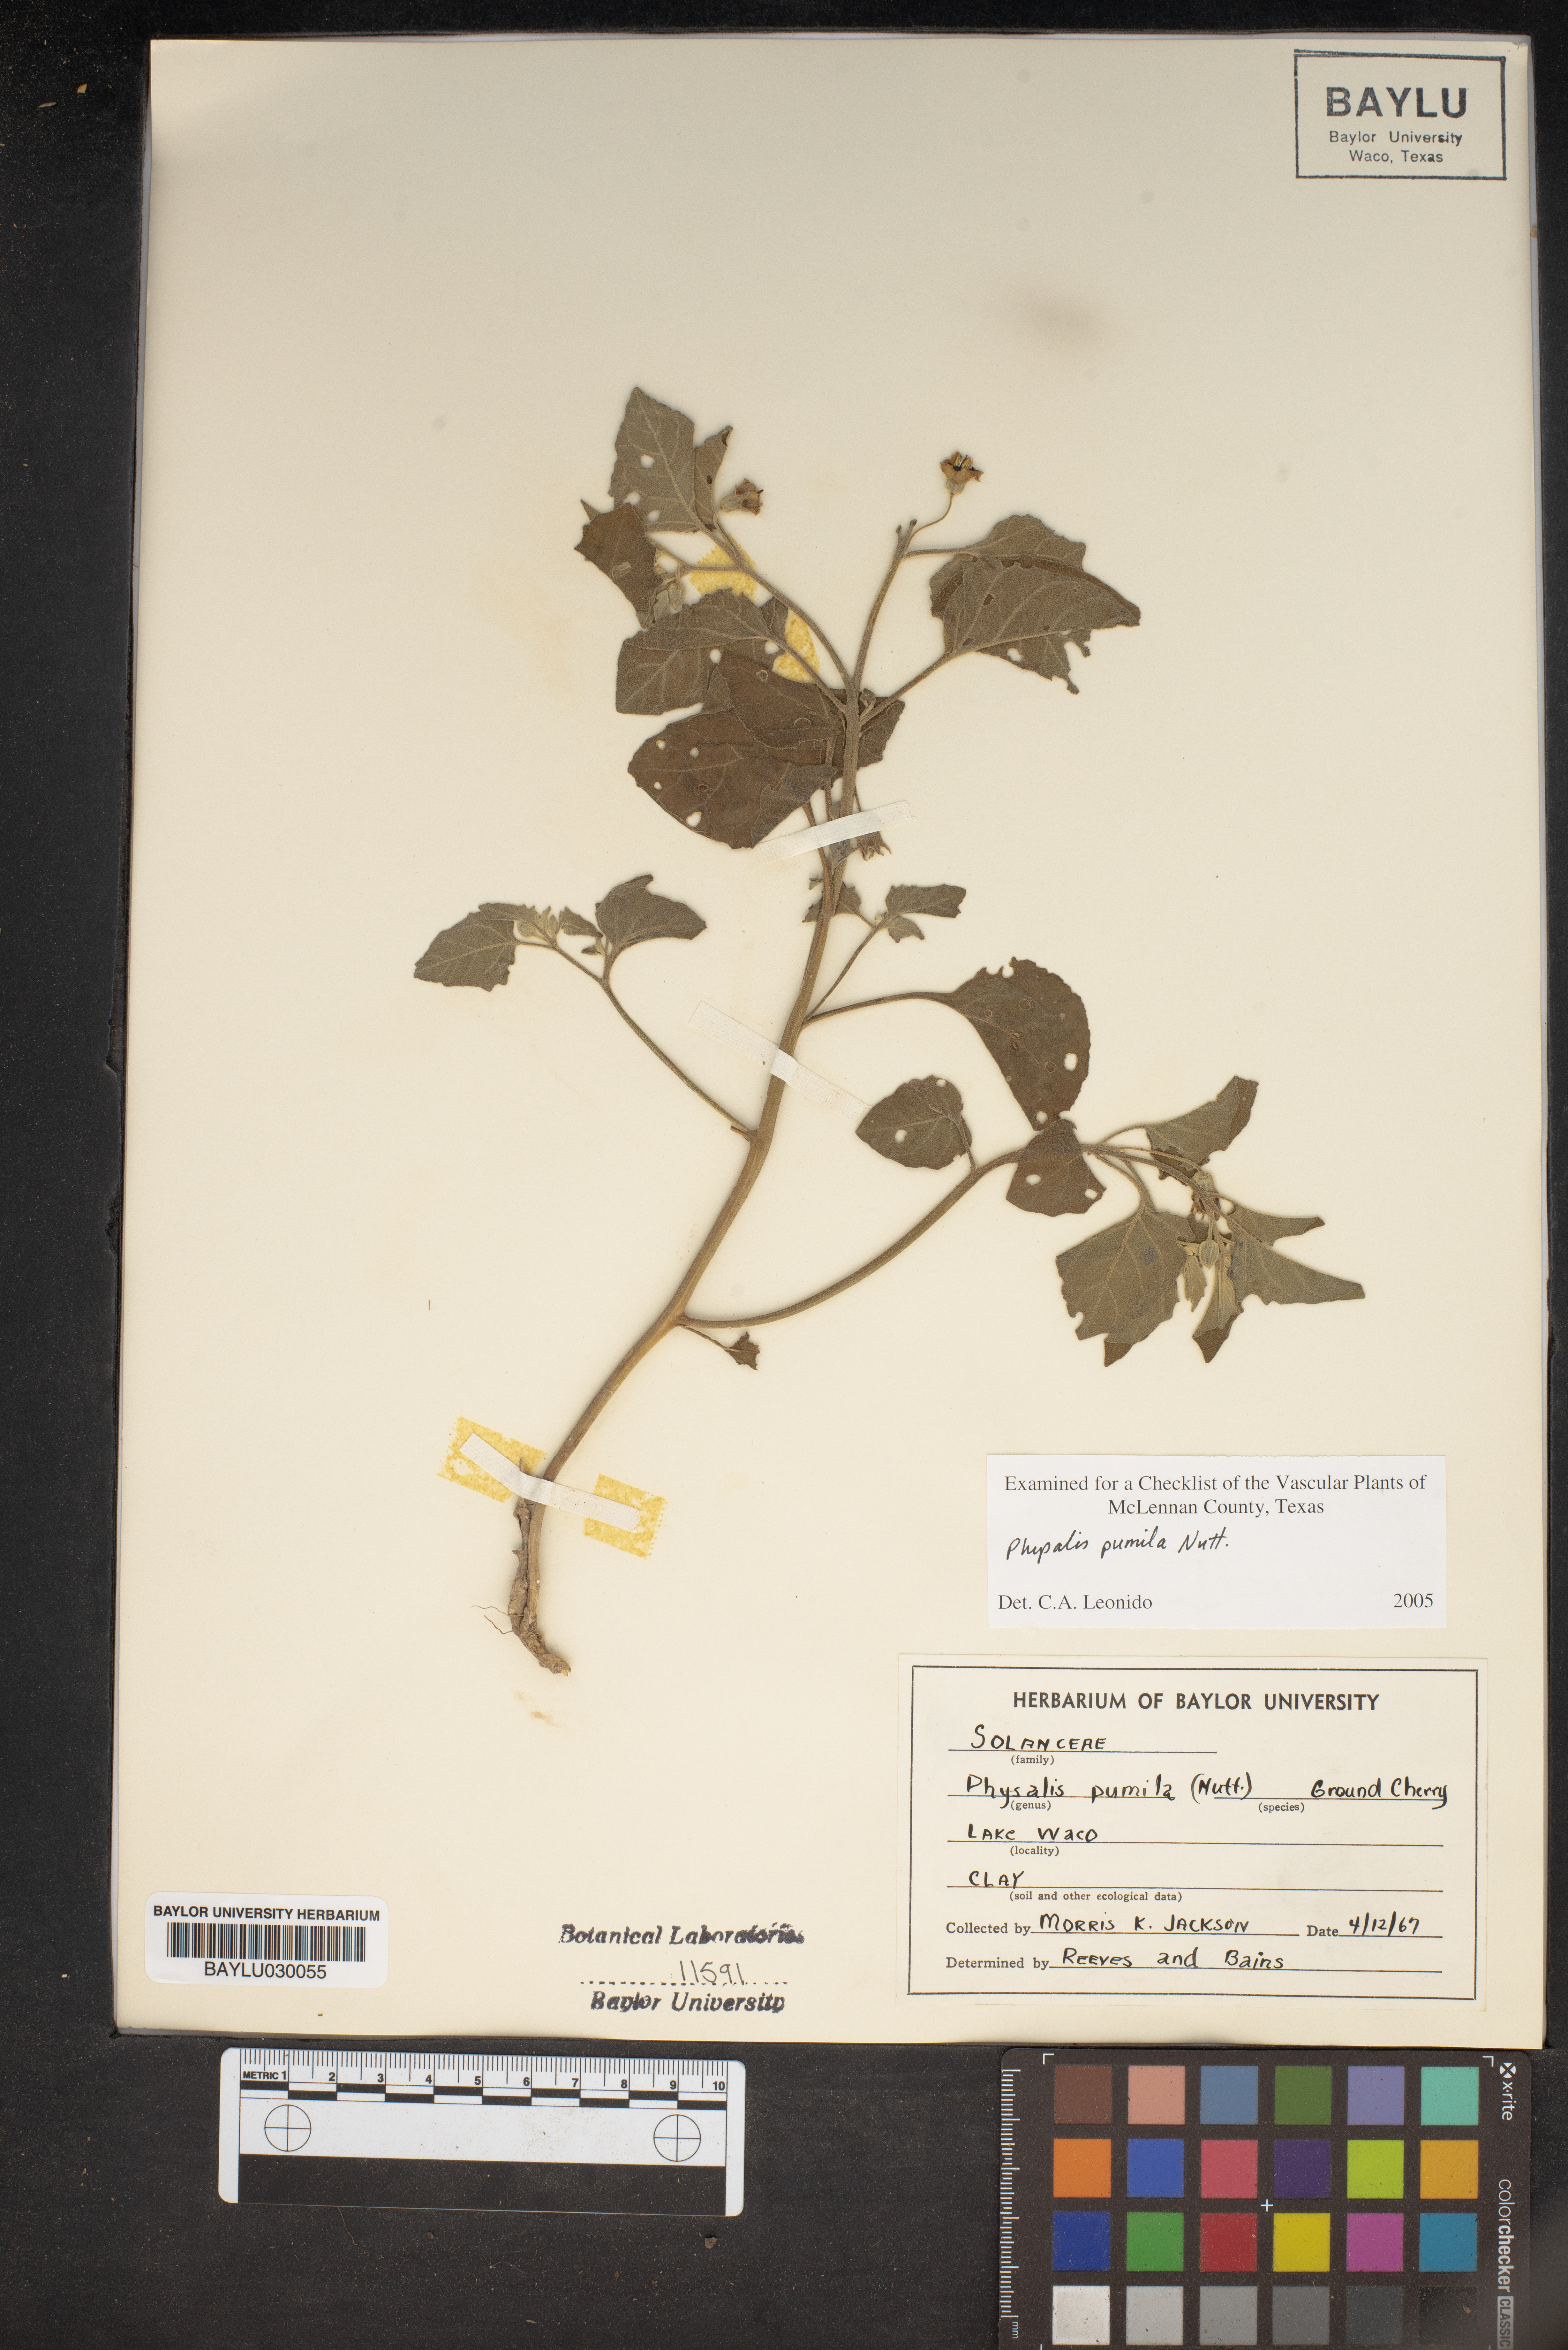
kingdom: Plantae
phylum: Tracheophyta
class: Magnoliopsida
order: Solanales
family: Solanaceae
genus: Physalis
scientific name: Physalis pumila
